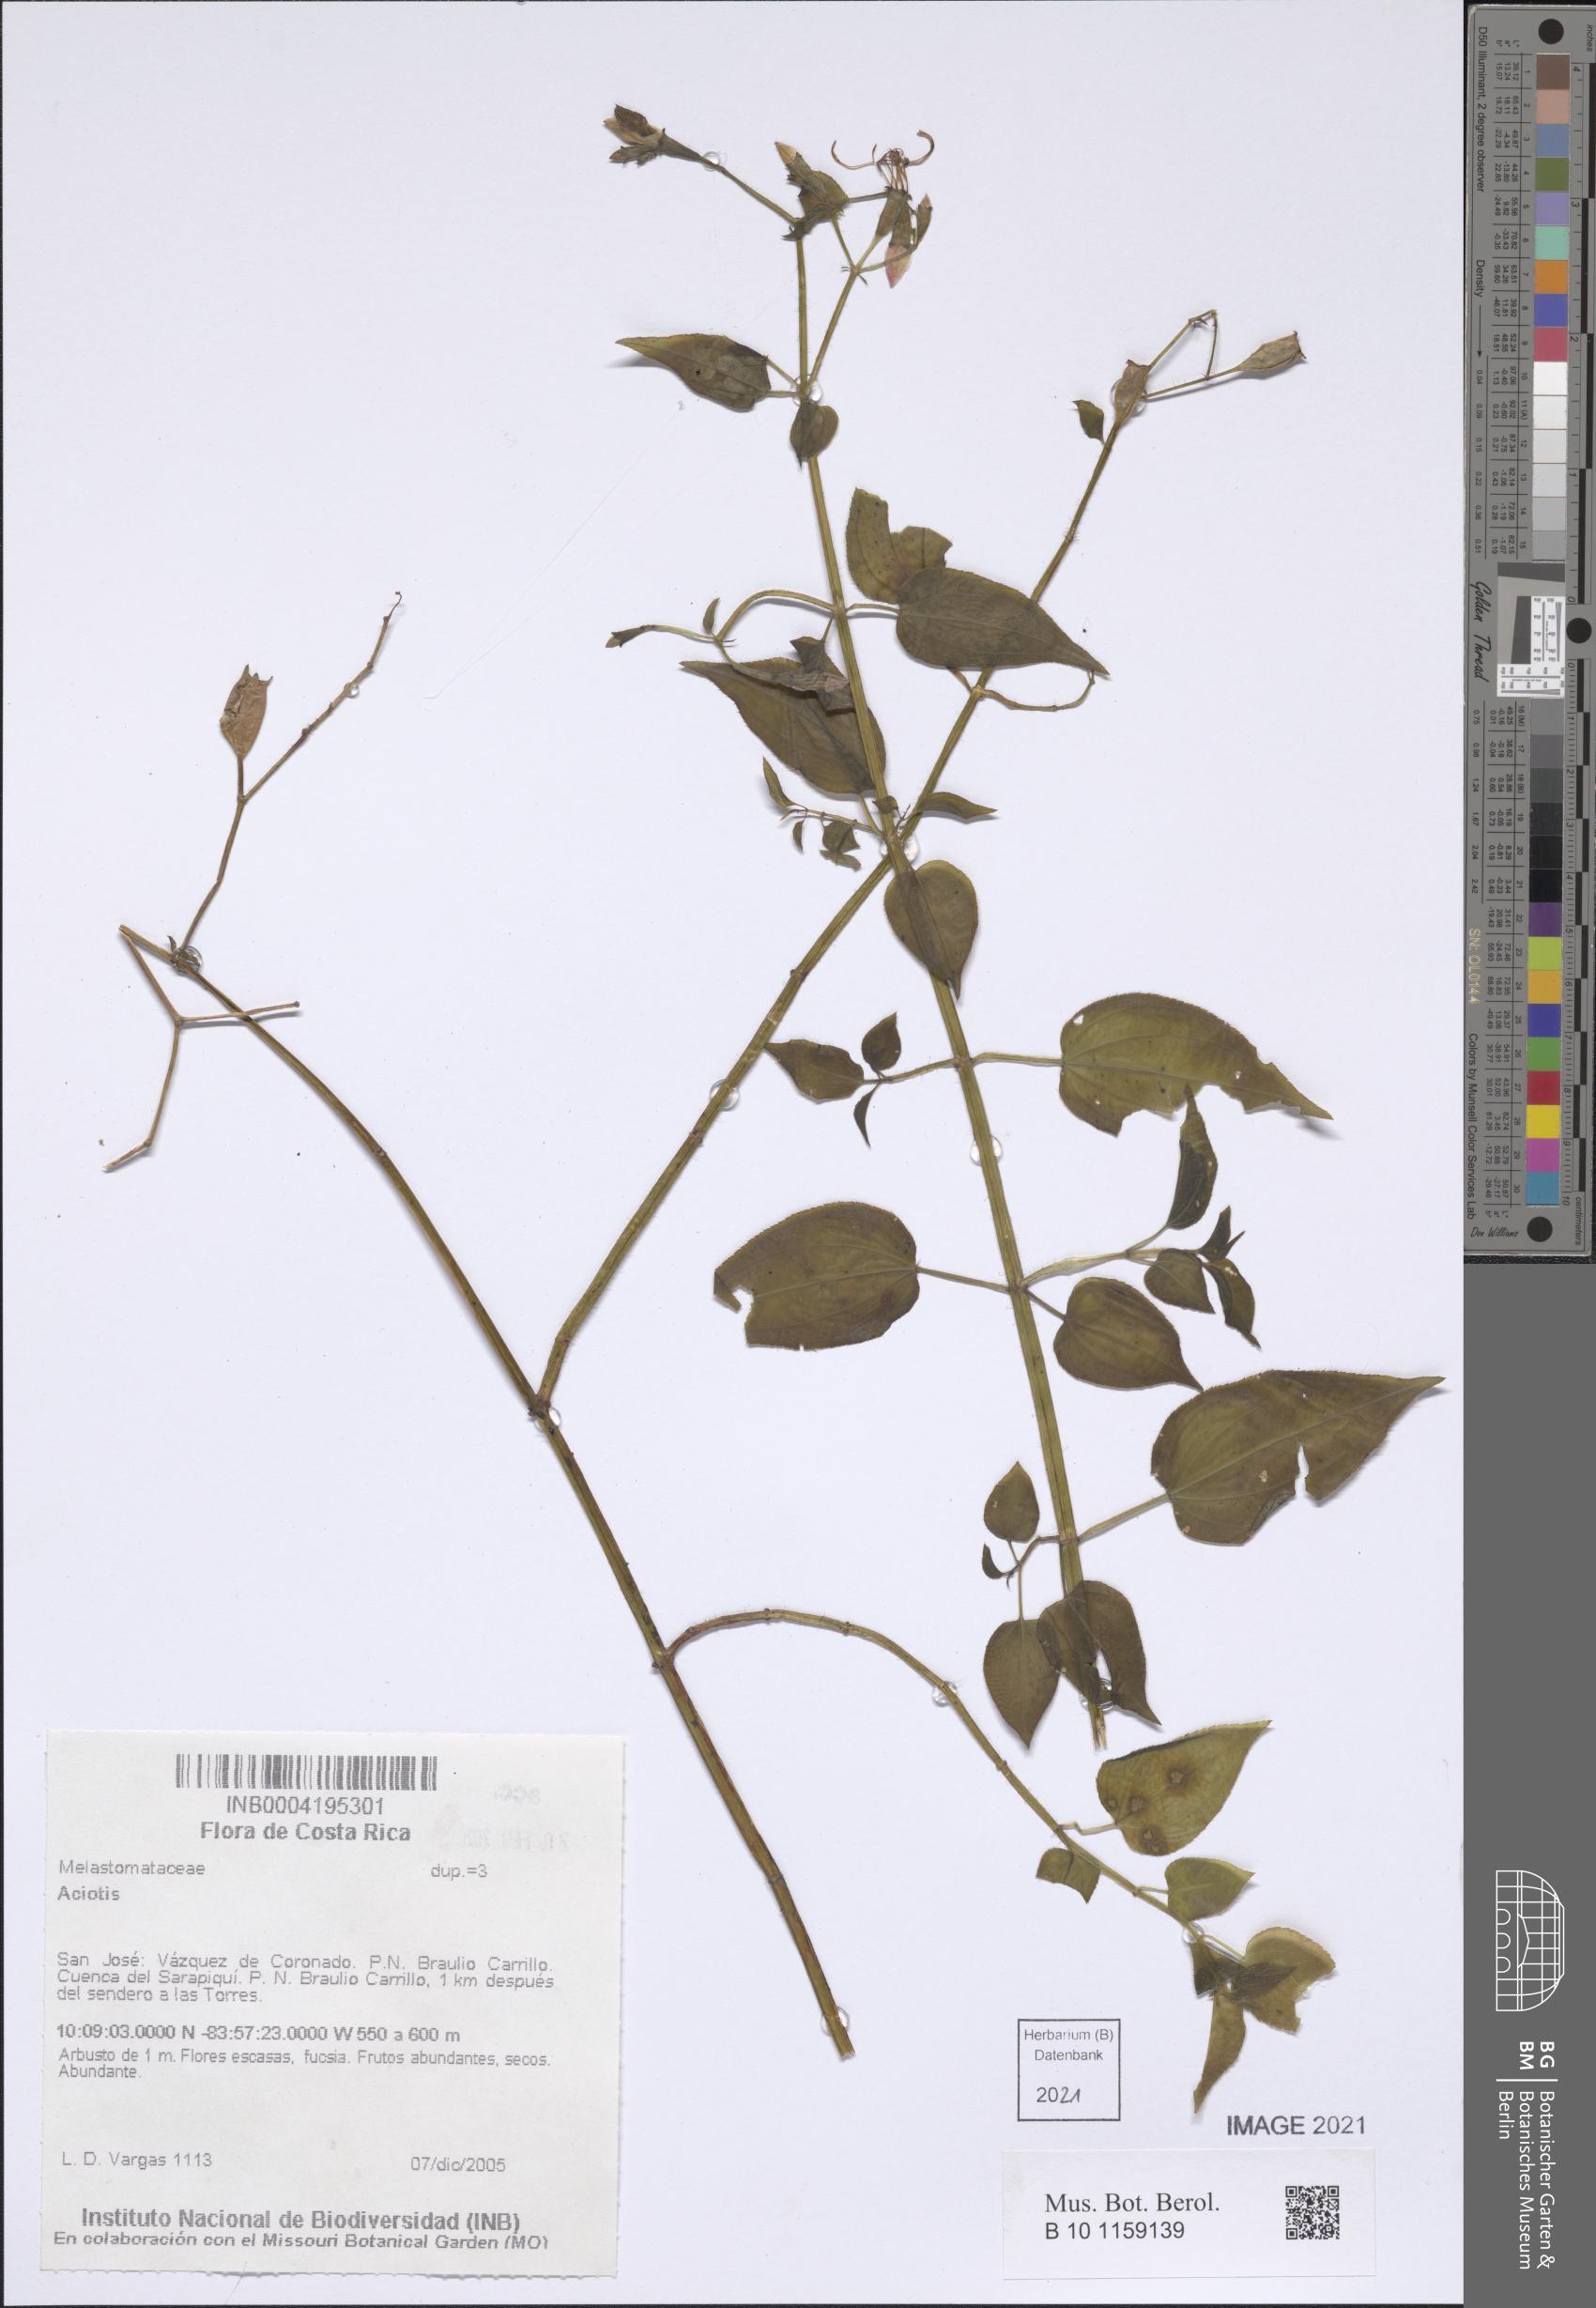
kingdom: Plantae
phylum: Tracheophyta
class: Magnoliopsida
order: Myrtales
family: Melastomataceae
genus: Aciotis
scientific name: Aciotis
